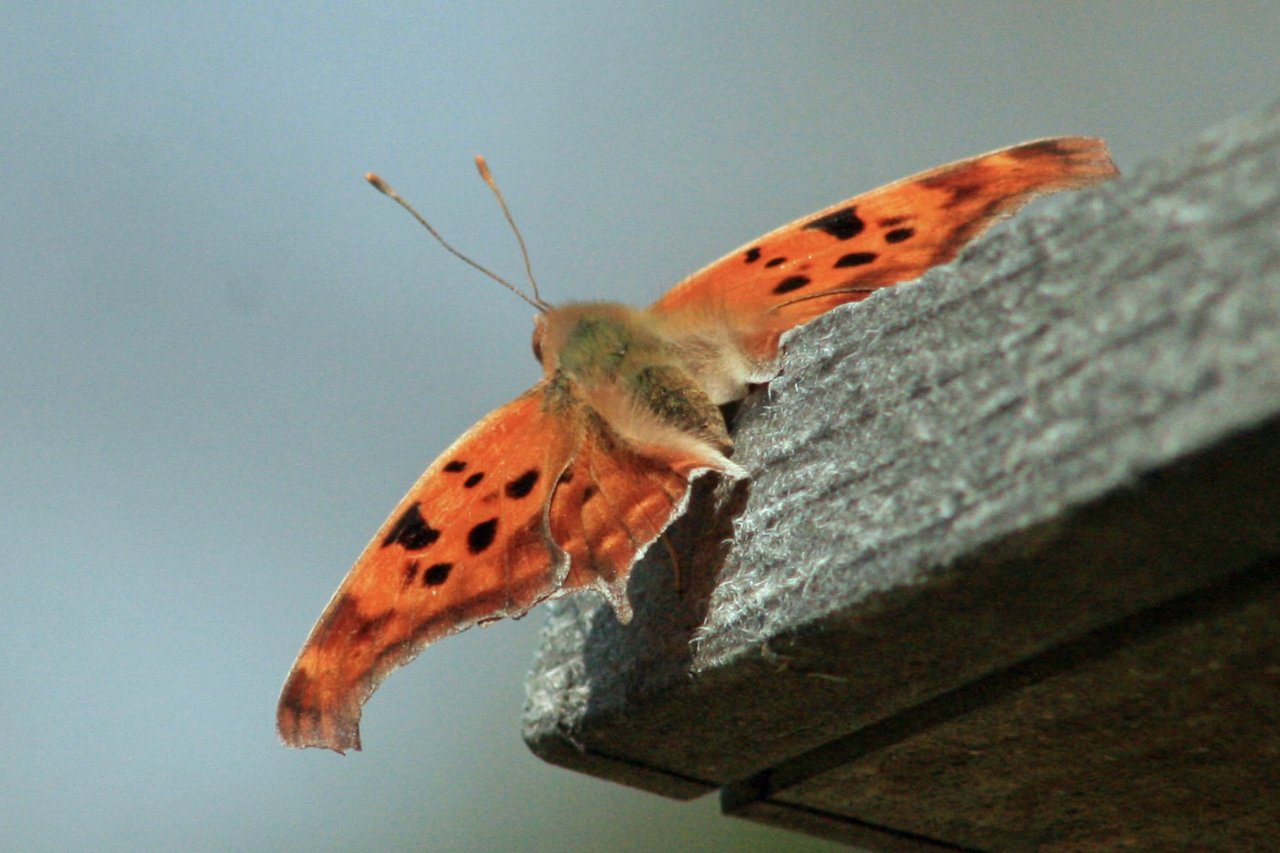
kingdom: Animalia
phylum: Arthropoda
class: Insecta
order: Lepidoptera
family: Nymphalidae
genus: Polygonia
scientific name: Polygonia interrogationis
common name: Question Mark
